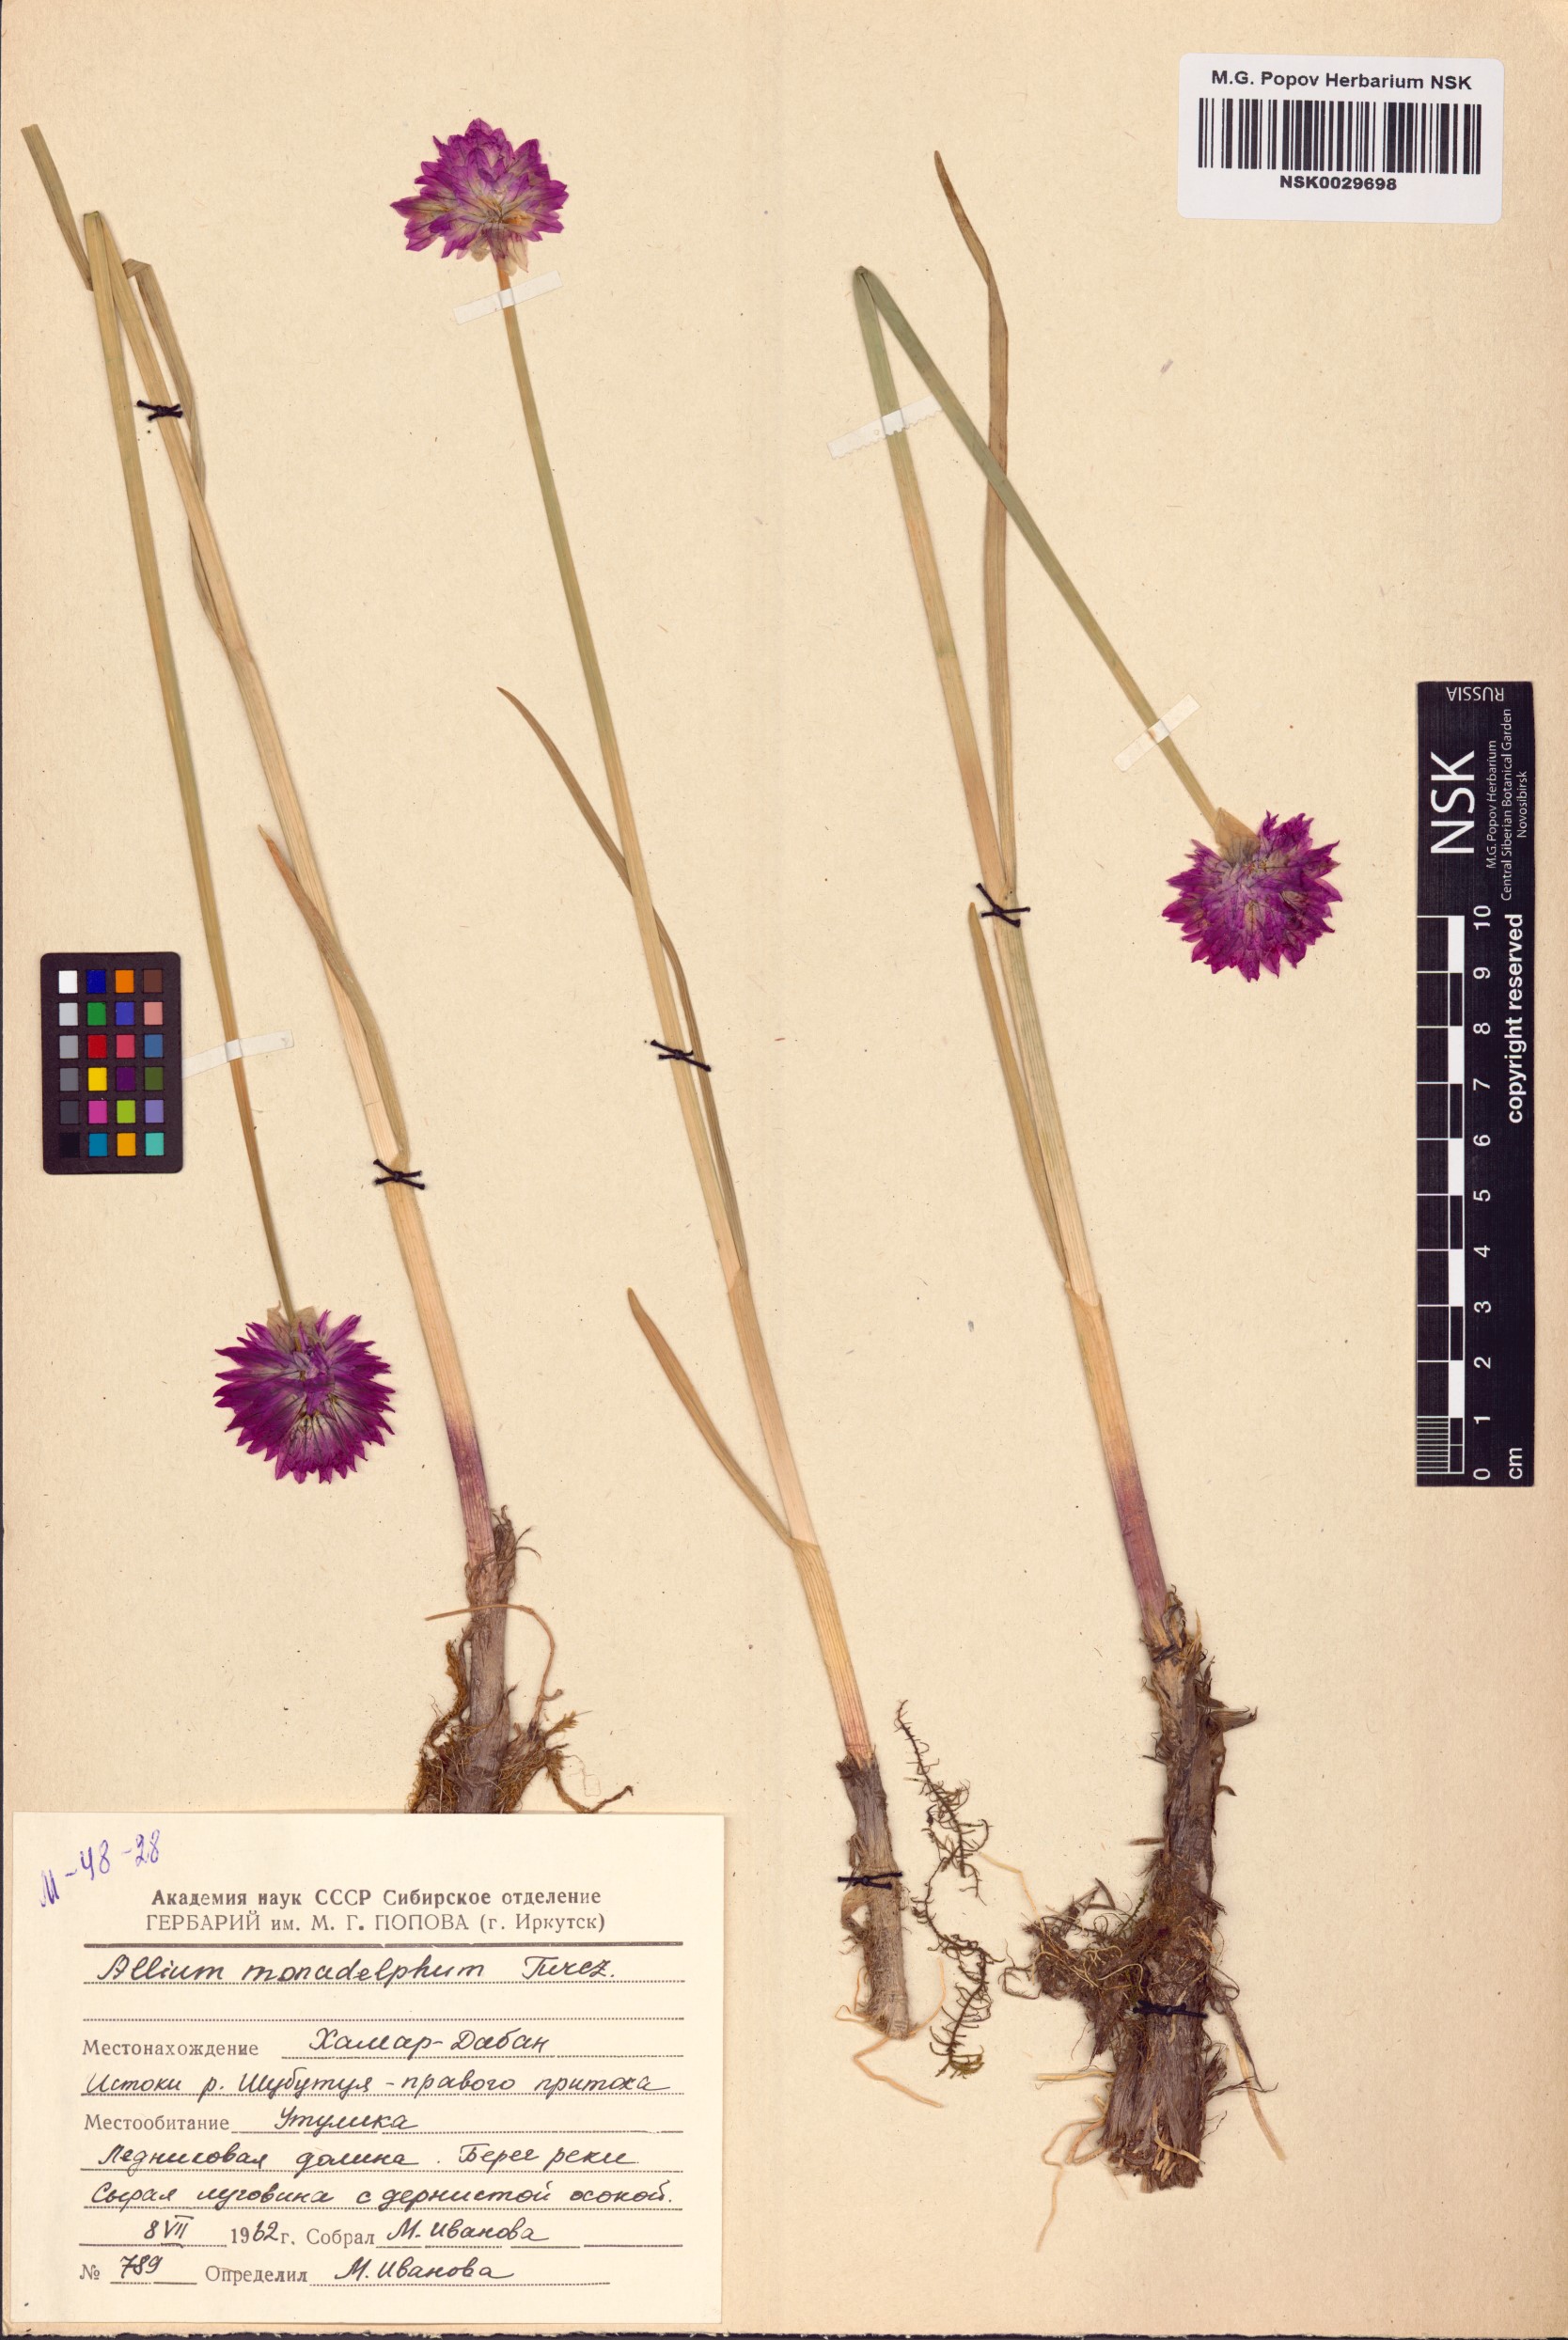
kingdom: Plantae
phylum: Tracheophyta
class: Liliopsida
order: Asparagales
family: Amaryllidaceae
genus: Allium
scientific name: Allium atrosanguineum
